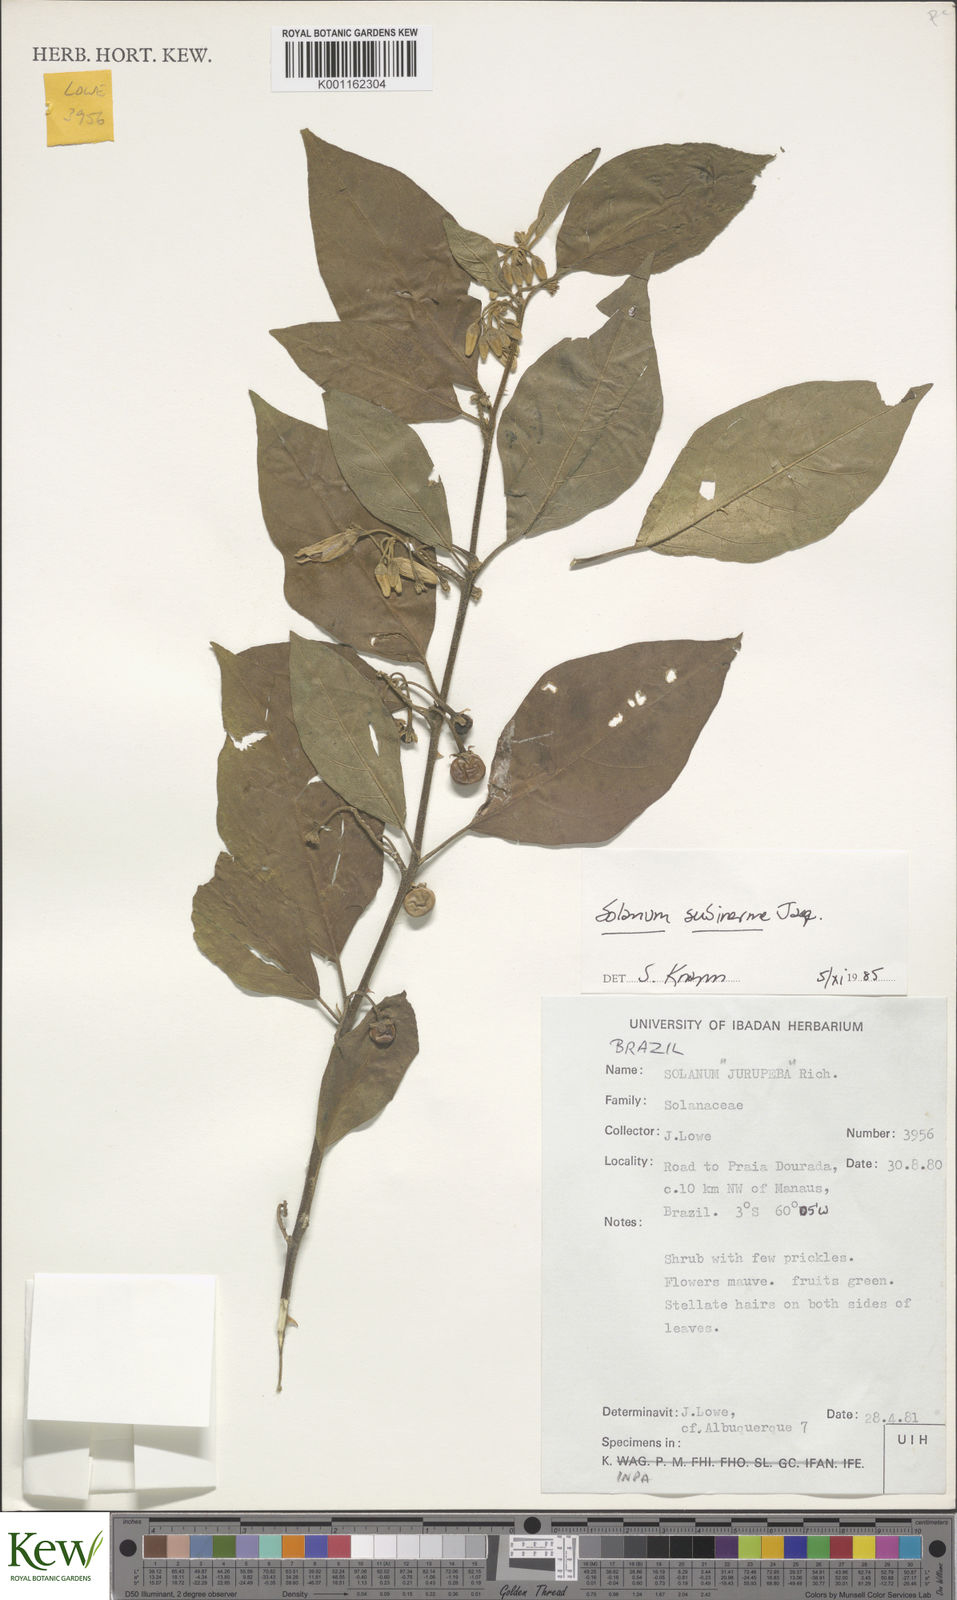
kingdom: Plantae
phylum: Tracheophyta
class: Magnoliopsida
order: Solanales
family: Solanaceae
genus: Solanum
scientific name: Solanum subinerme
